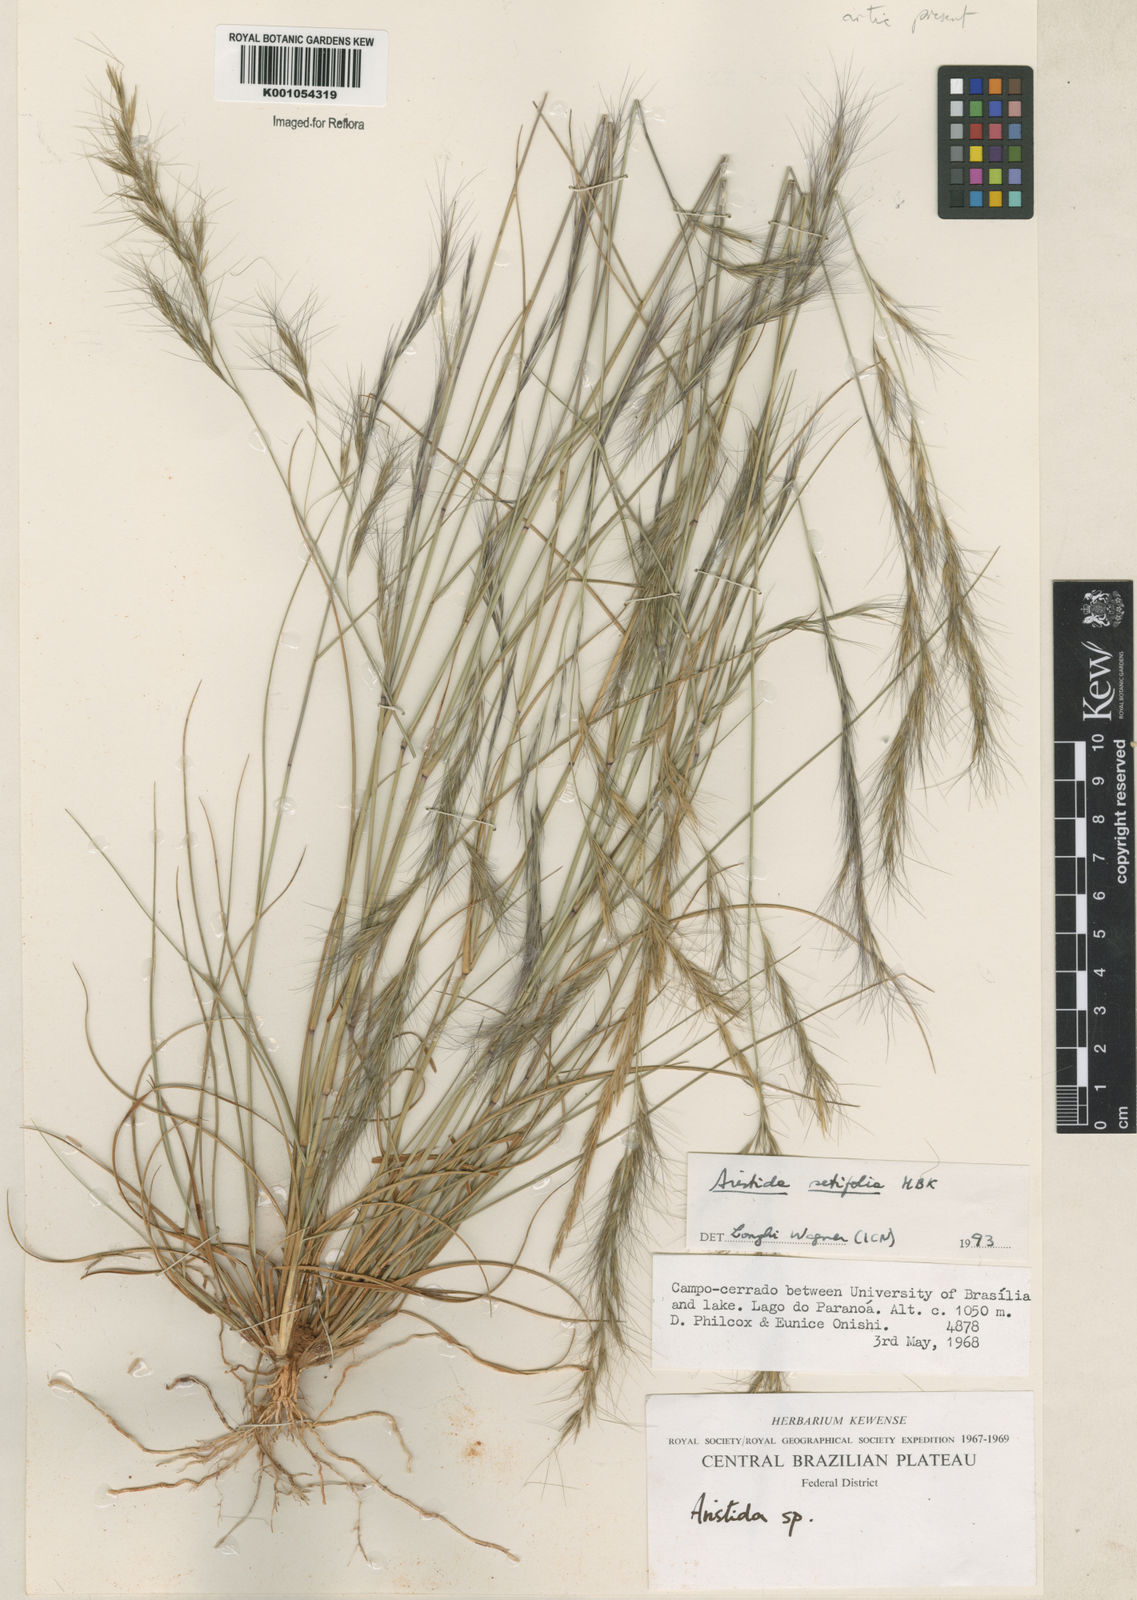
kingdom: Plantae
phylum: Tracheophyta
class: Liliopsida
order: Poales
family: Poaceae
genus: Aristida
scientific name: Aristida setifolia
